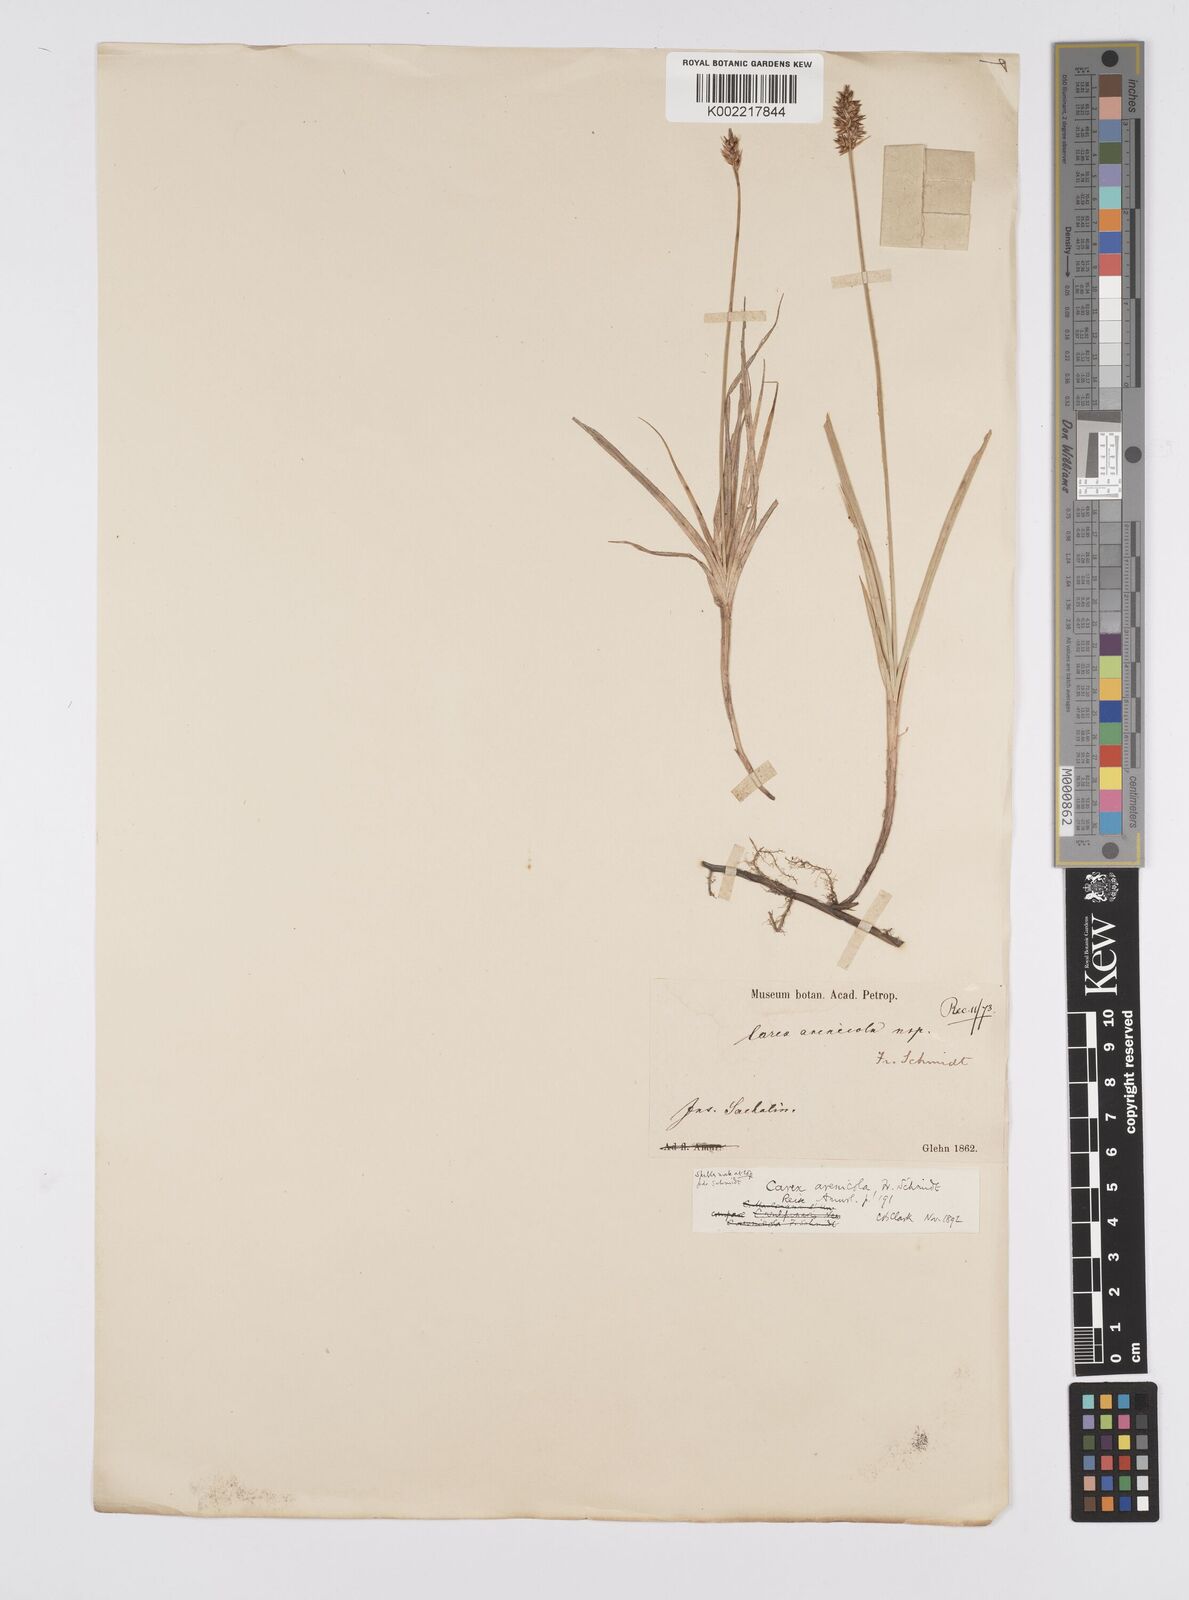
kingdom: Plantae
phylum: Tracheophyta
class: Liliopsida
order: Poales
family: Cyperaceae
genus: Carex
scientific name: Carex arenicola
